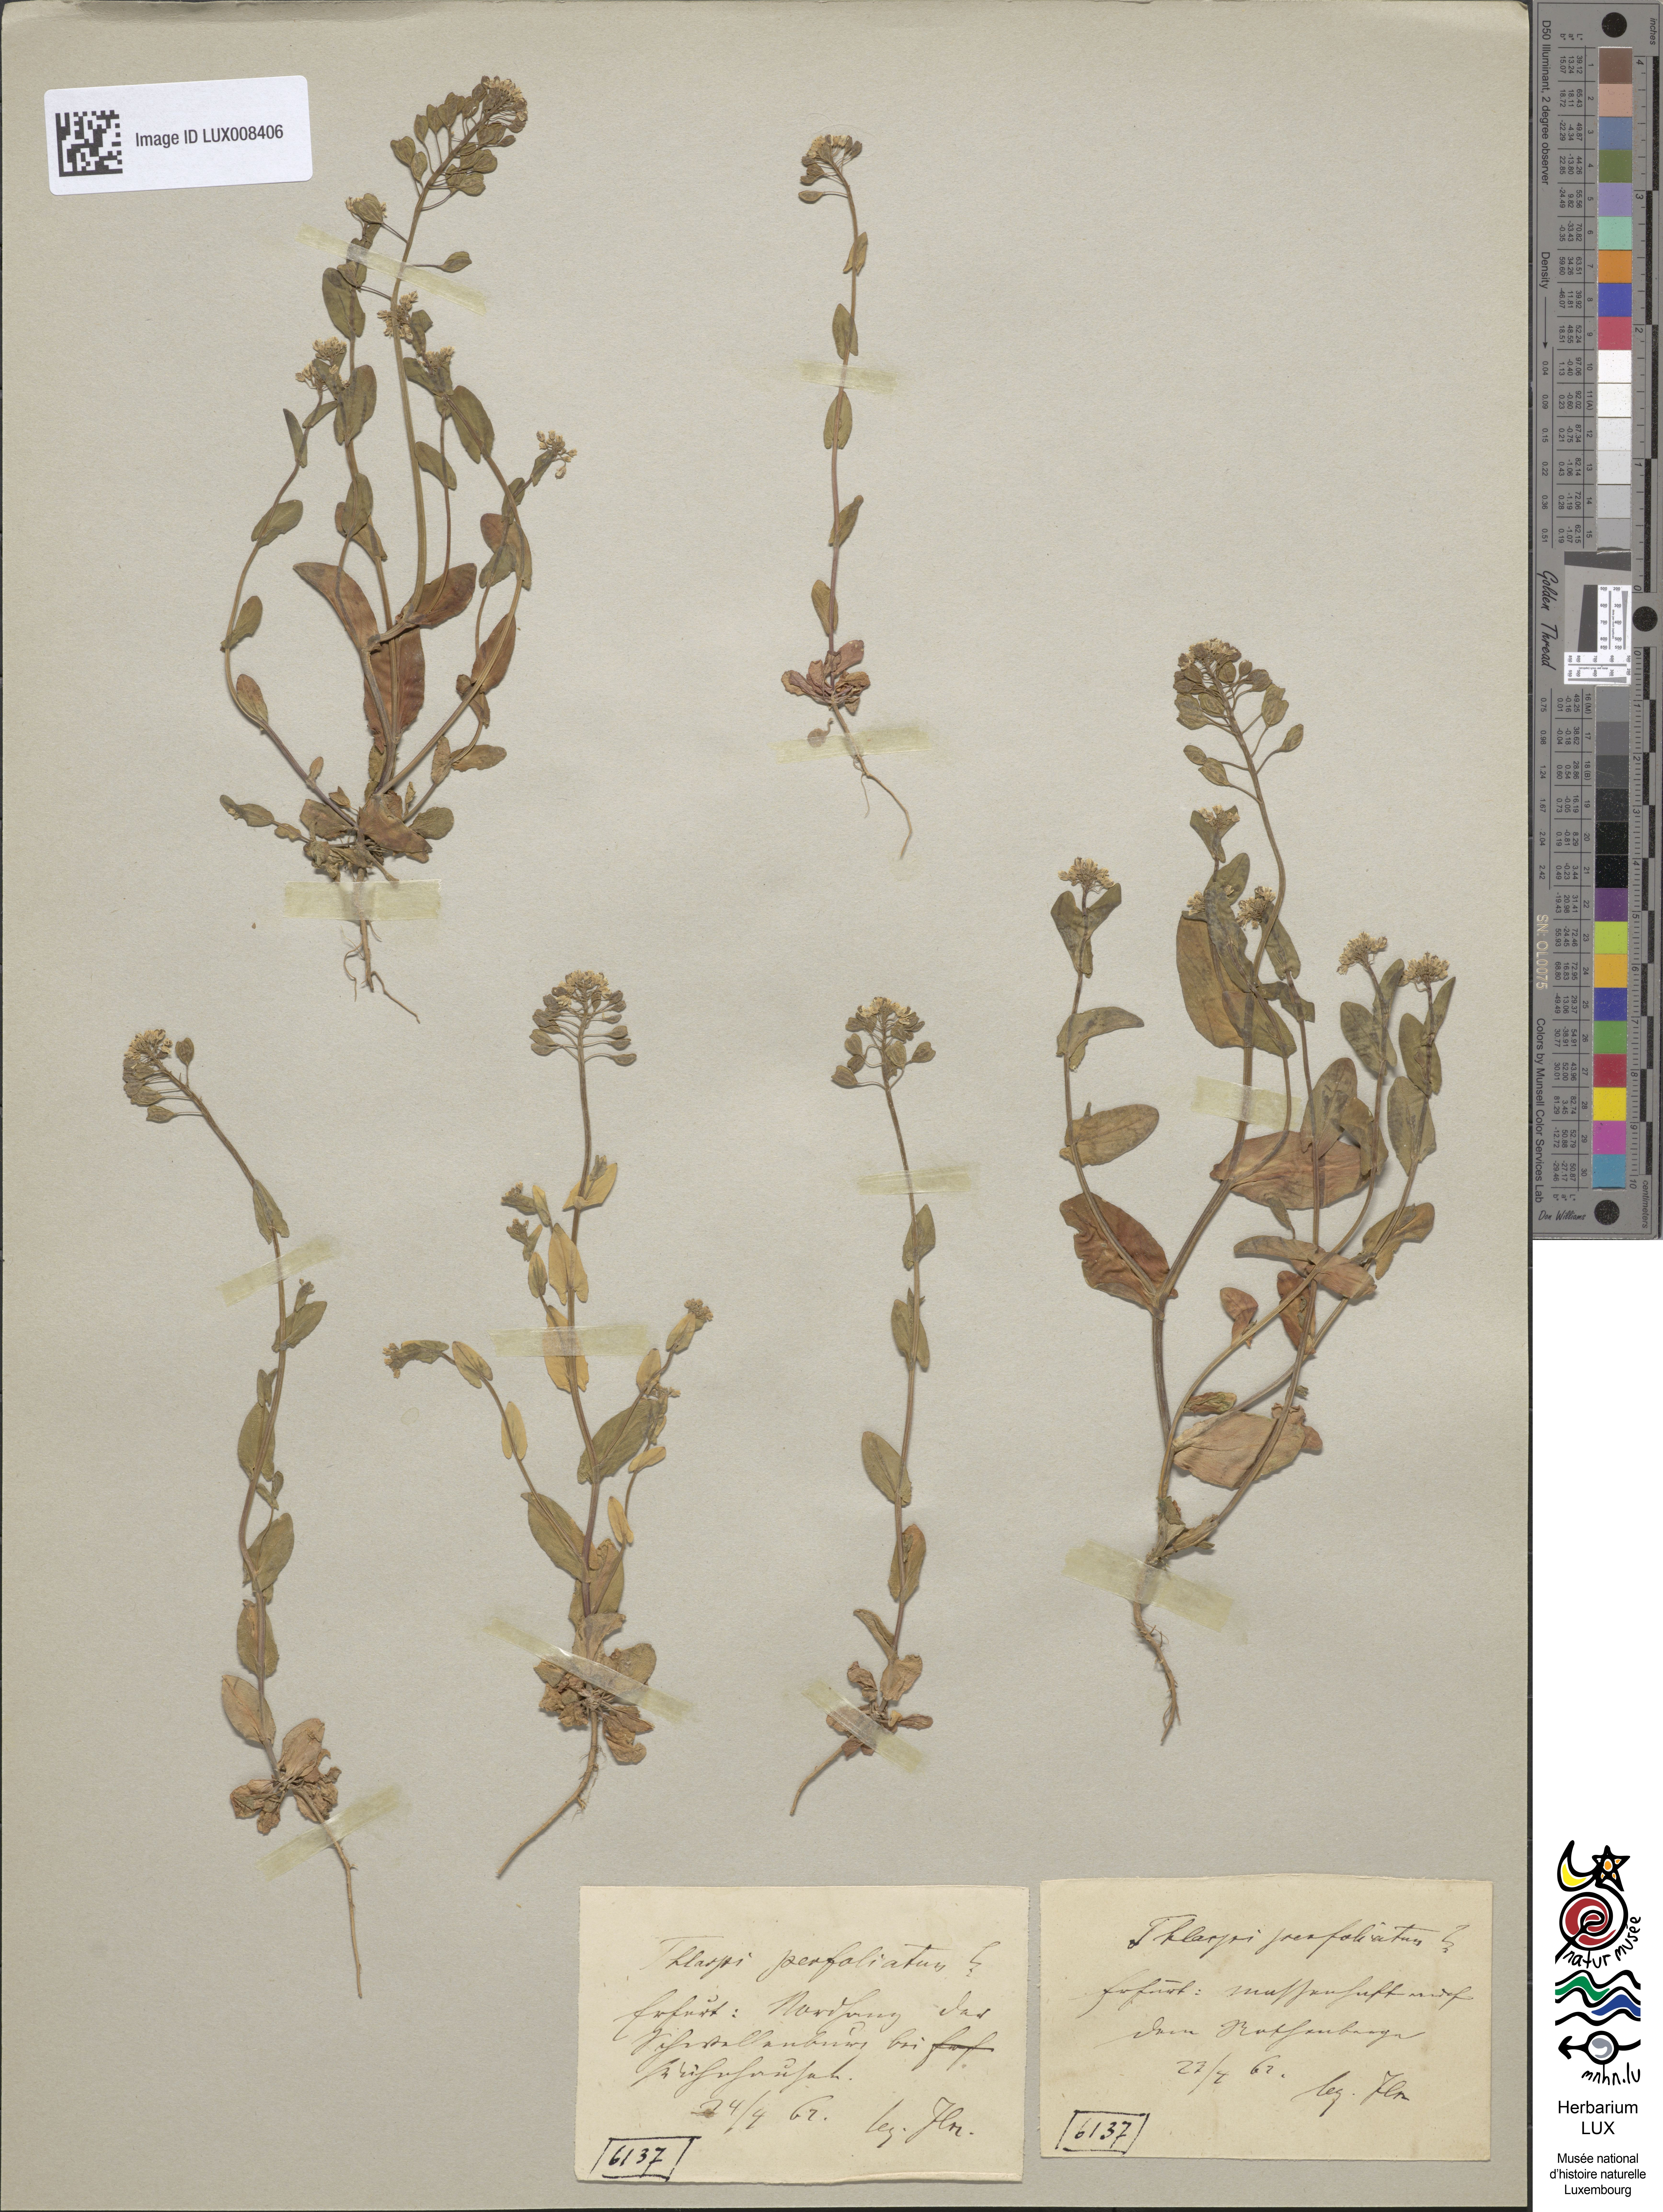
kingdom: Plantae
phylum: Tracheophyta
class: Magnoliopsida
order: Brassicales
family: Brassicaceae
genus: Noccaea
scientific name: Noccaea perfoliata
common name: Perfoliate pennycress
